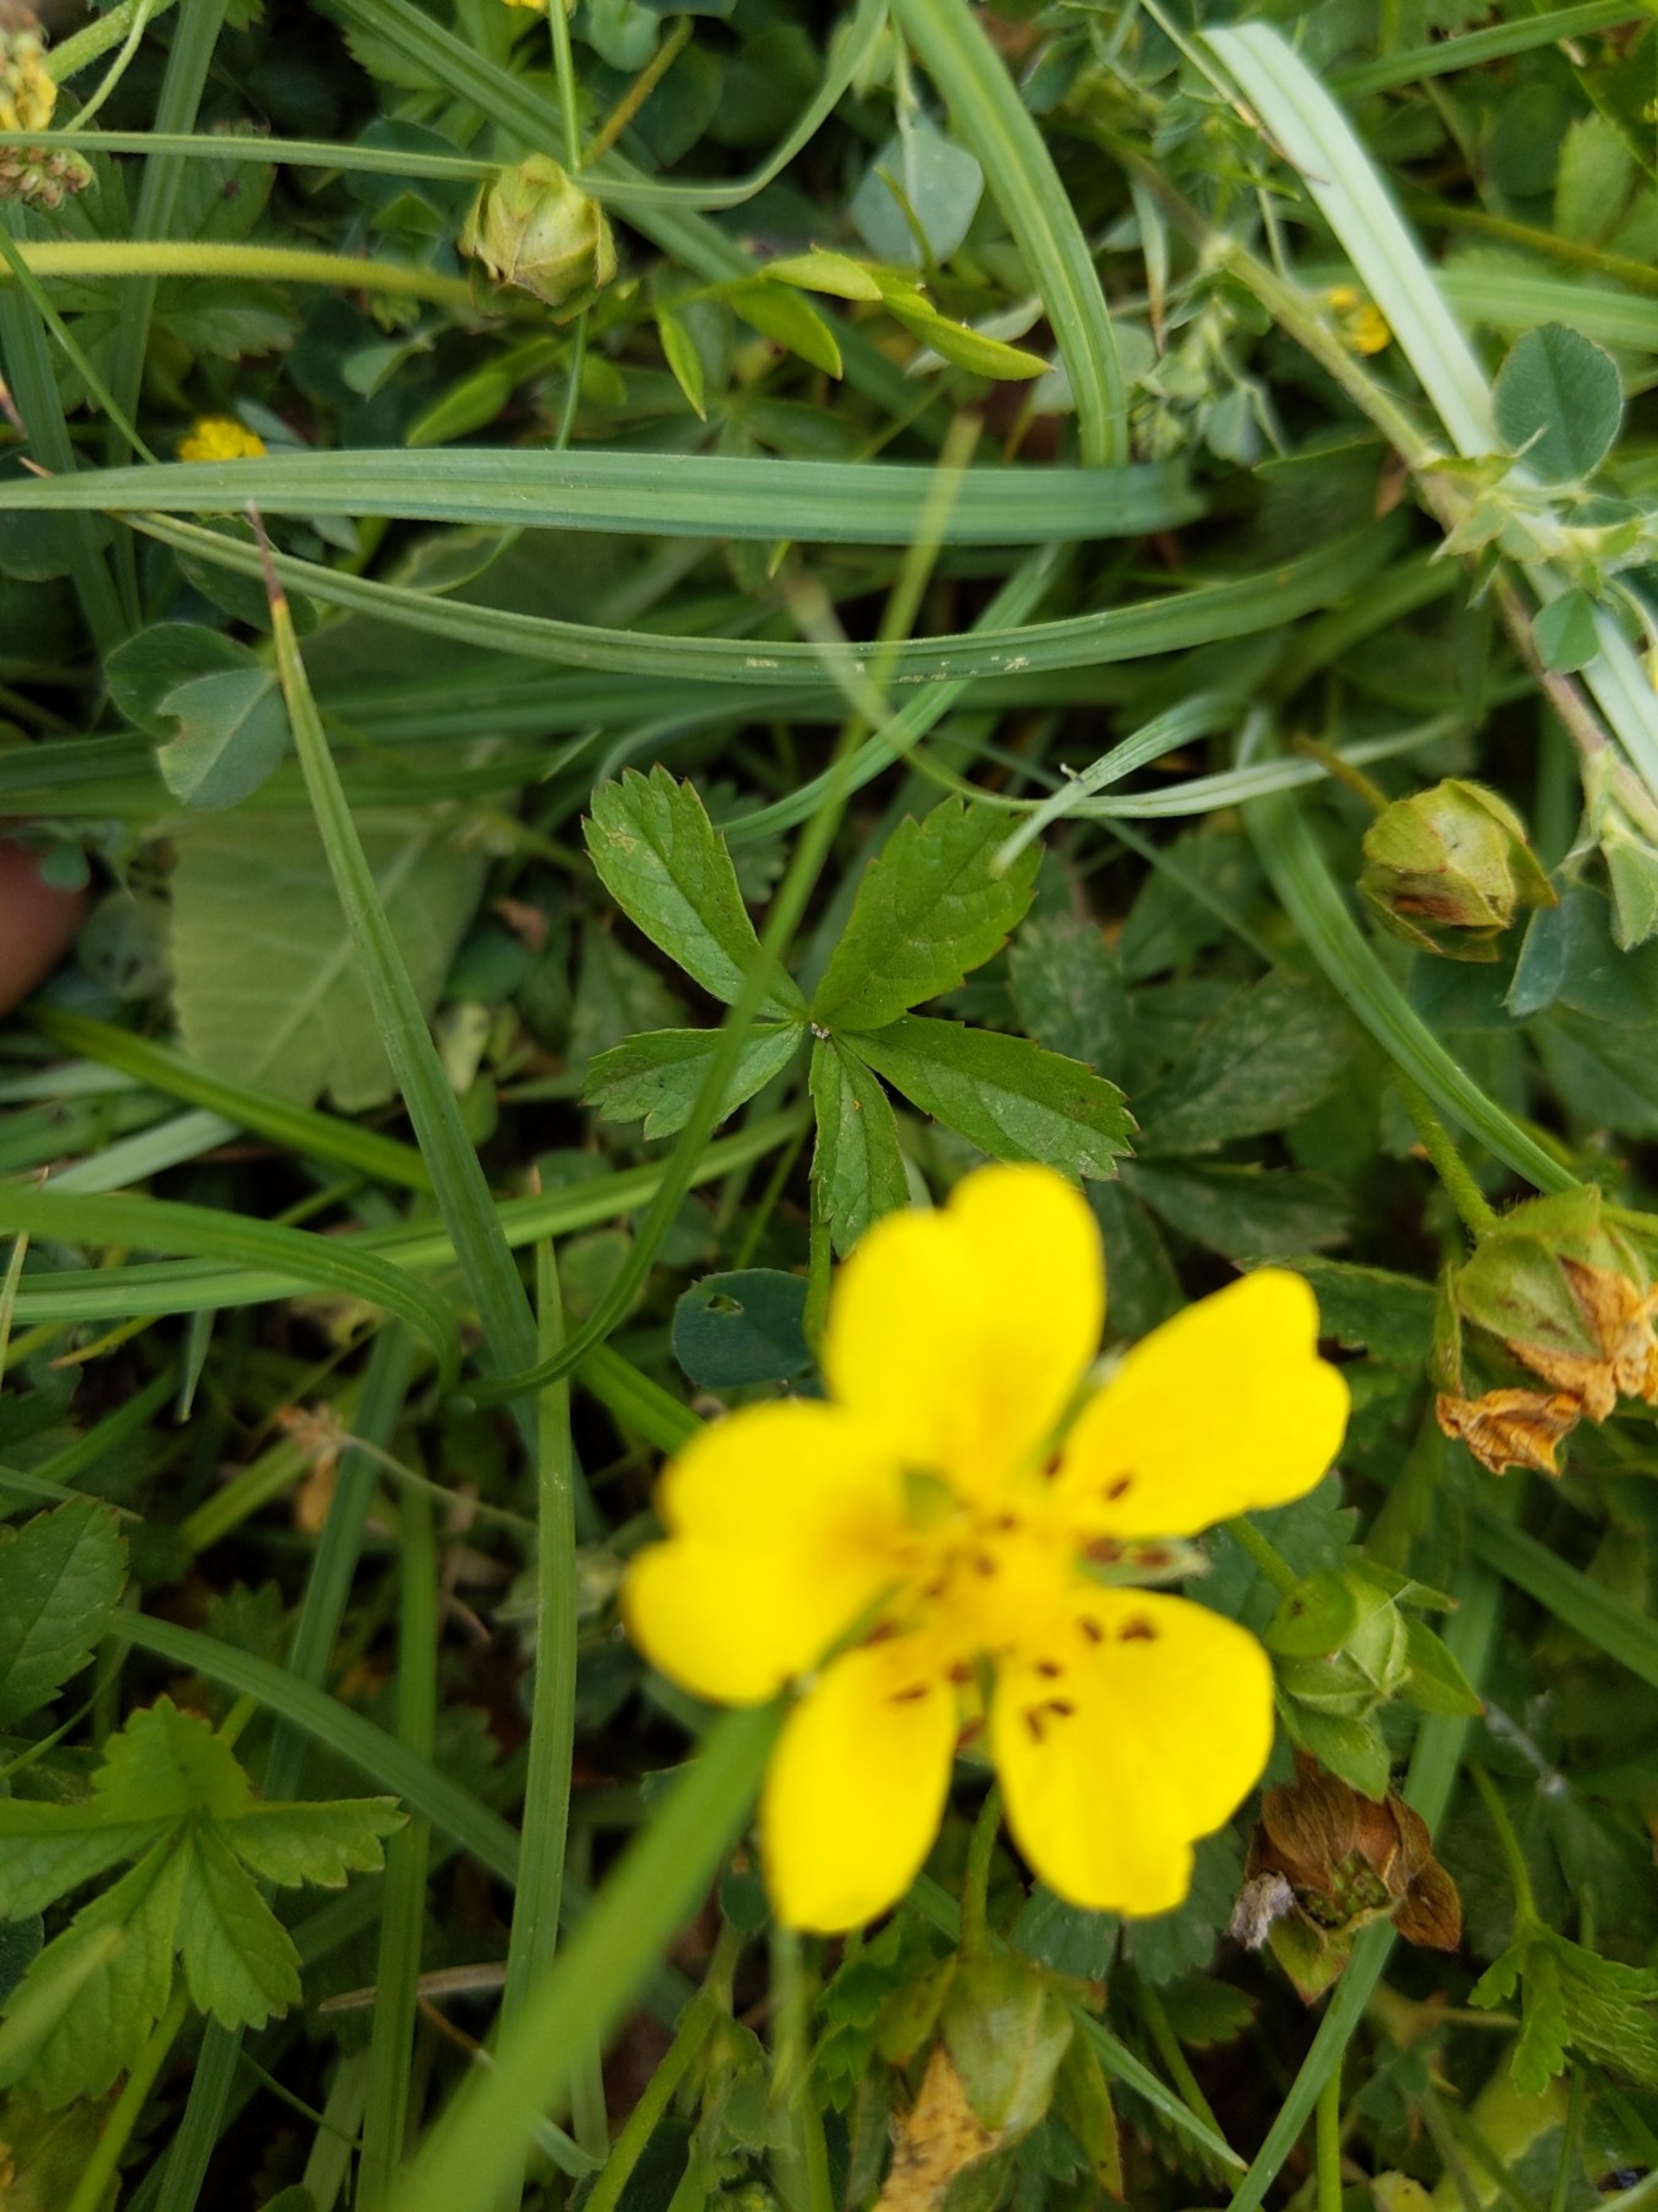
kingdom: Plantae
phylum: Tracheophyta
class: Magnoliopsida
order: Rosales
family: Rosaceae
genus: Potentilla
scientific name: Potentilla reptans
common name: Krybende potentil
